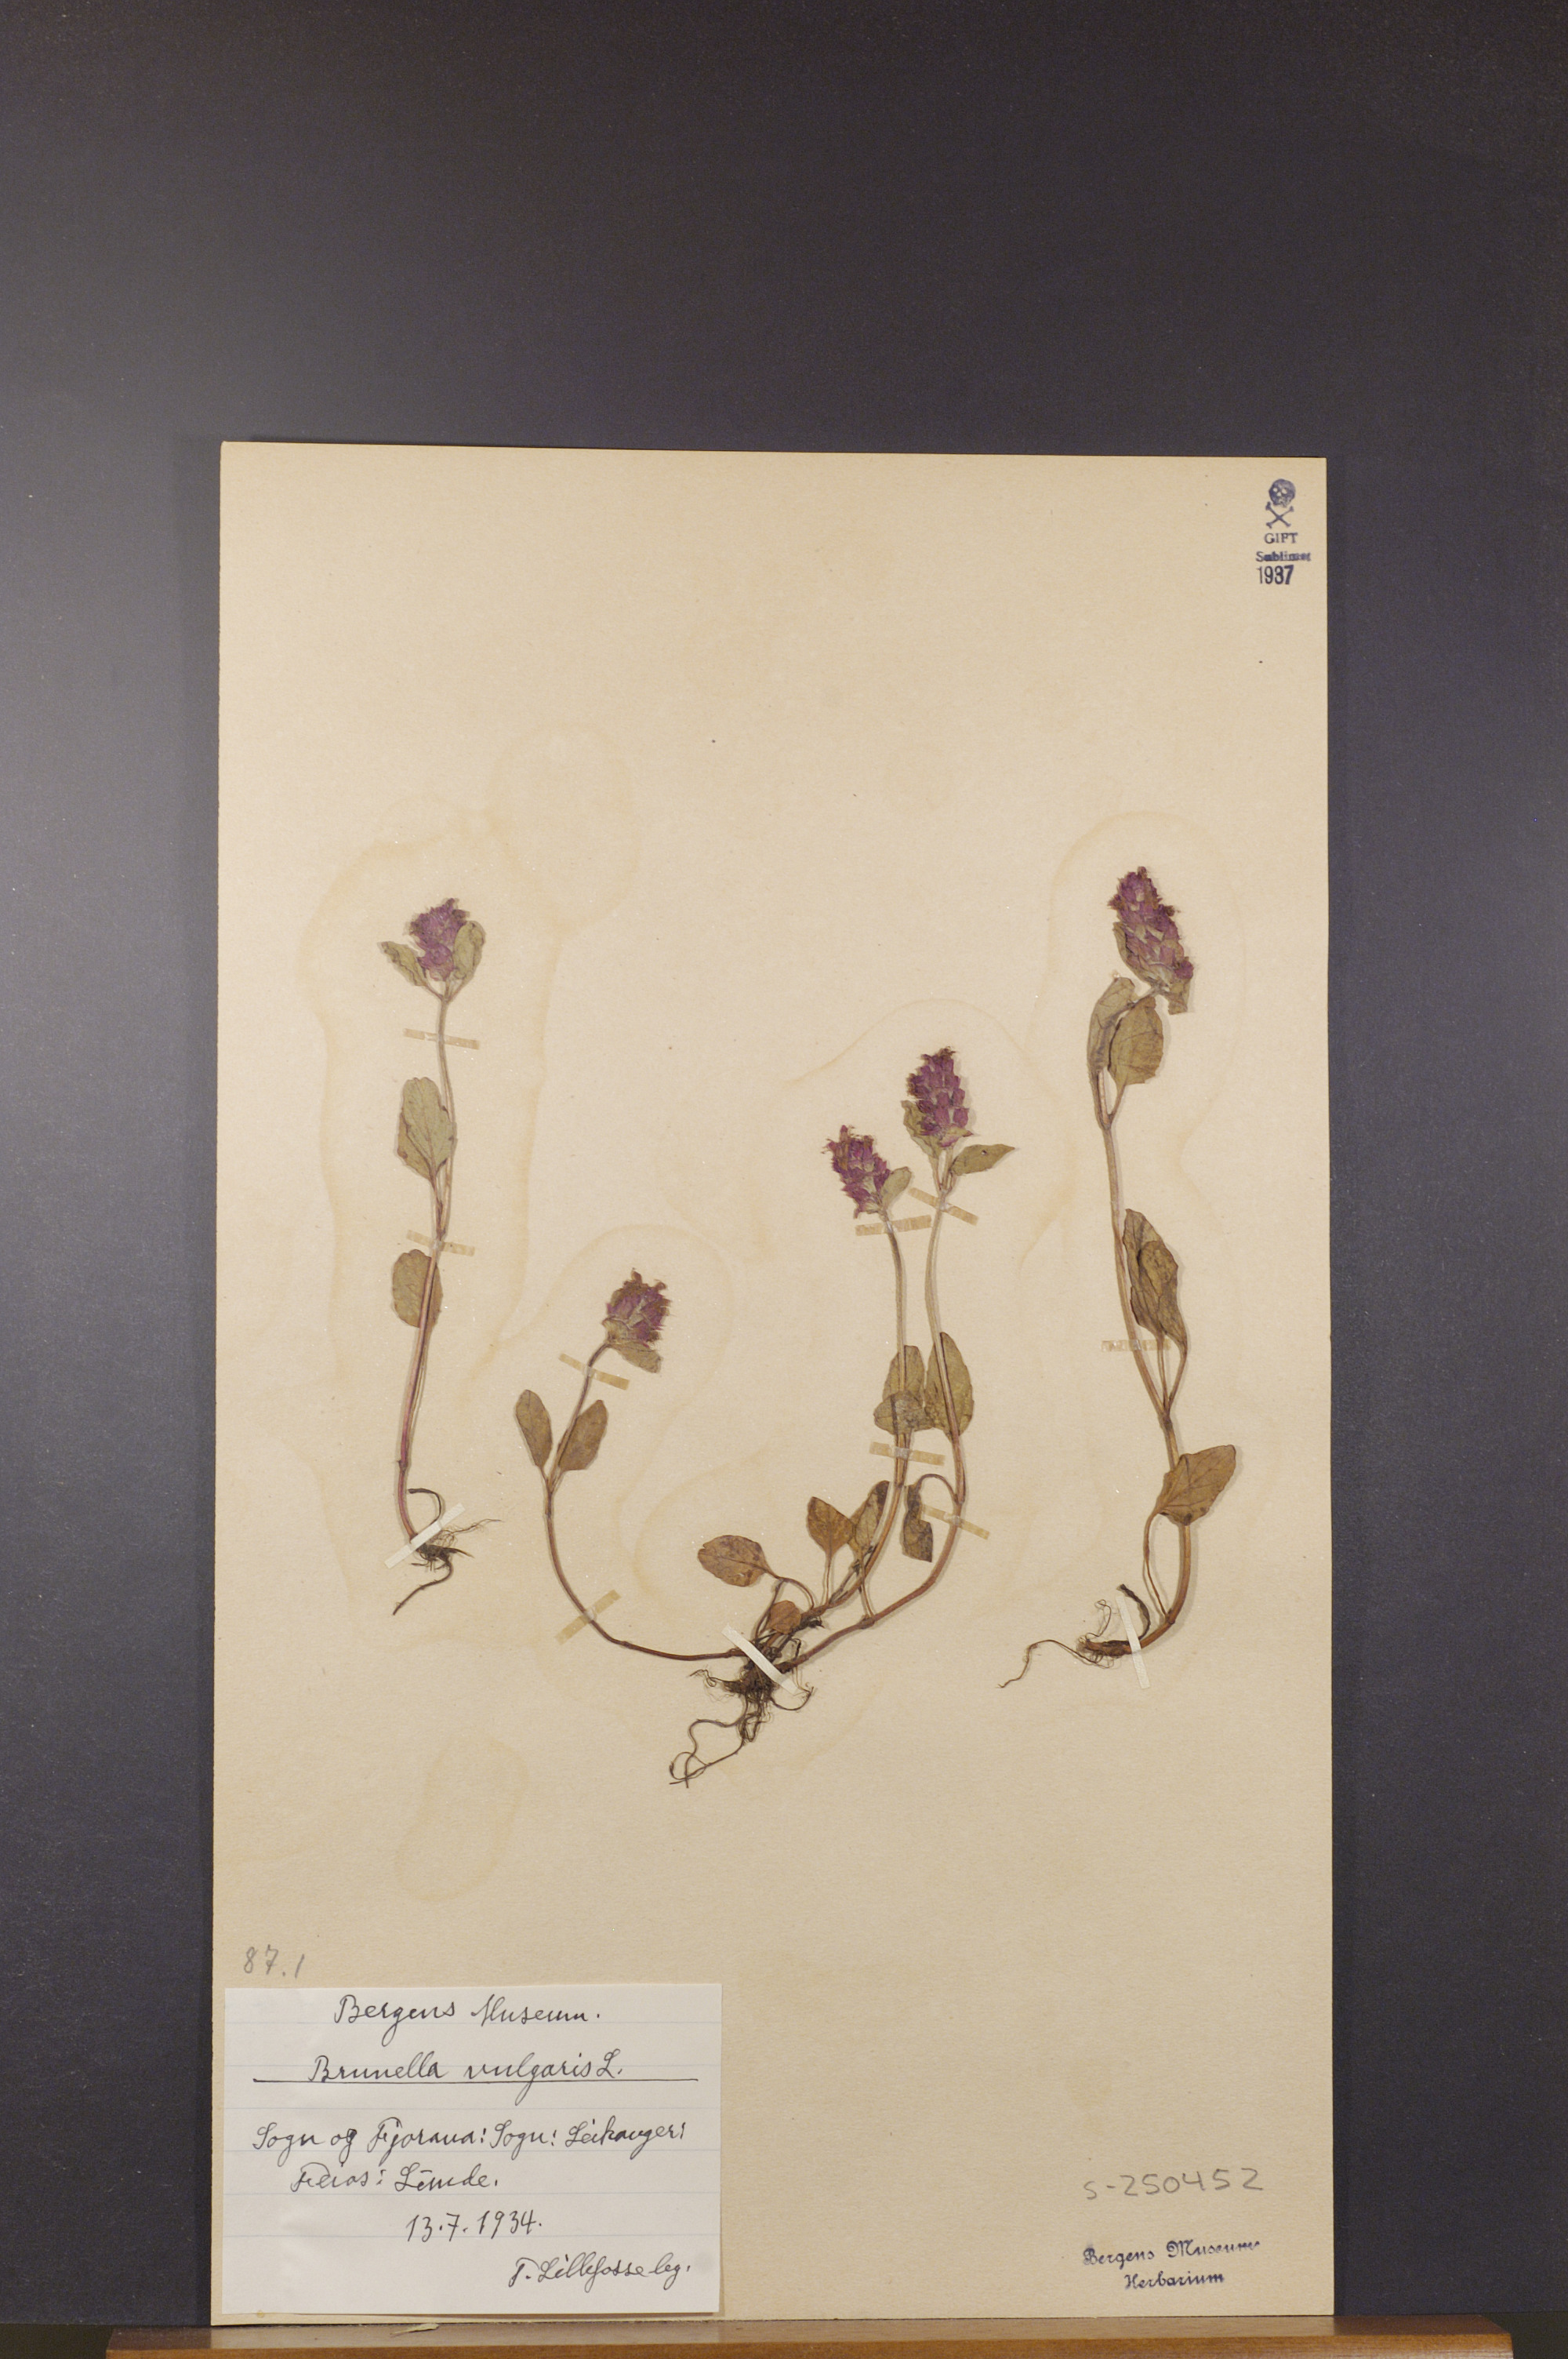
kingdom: Plantae
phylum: Tracheophyta
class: Magnoliopsida
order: Lamiales
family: Lamiaceae
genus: Prunella
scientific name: Prunella vulgaris
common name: Heal-all
